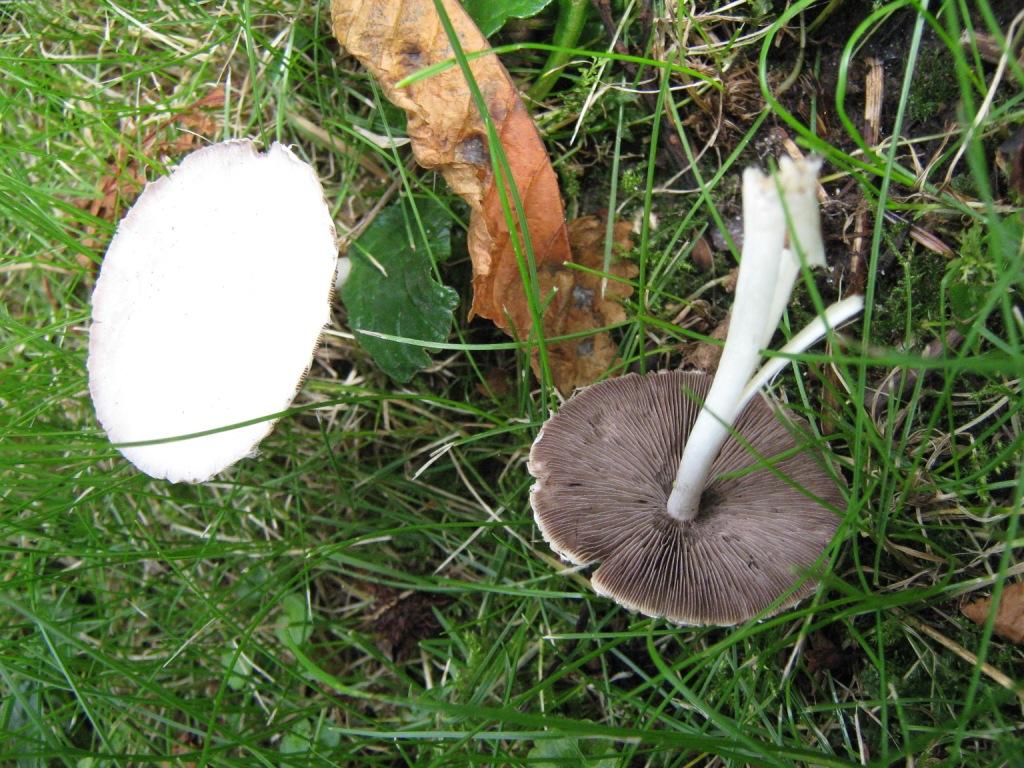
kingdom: Fungi
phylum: Basidiomycota
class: Agaricomycetes
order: Agaricales
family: Psathyrellaceae
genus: Candolleomyces
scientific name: Candolleomyces candolleanus
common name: Candolles mørkhat
